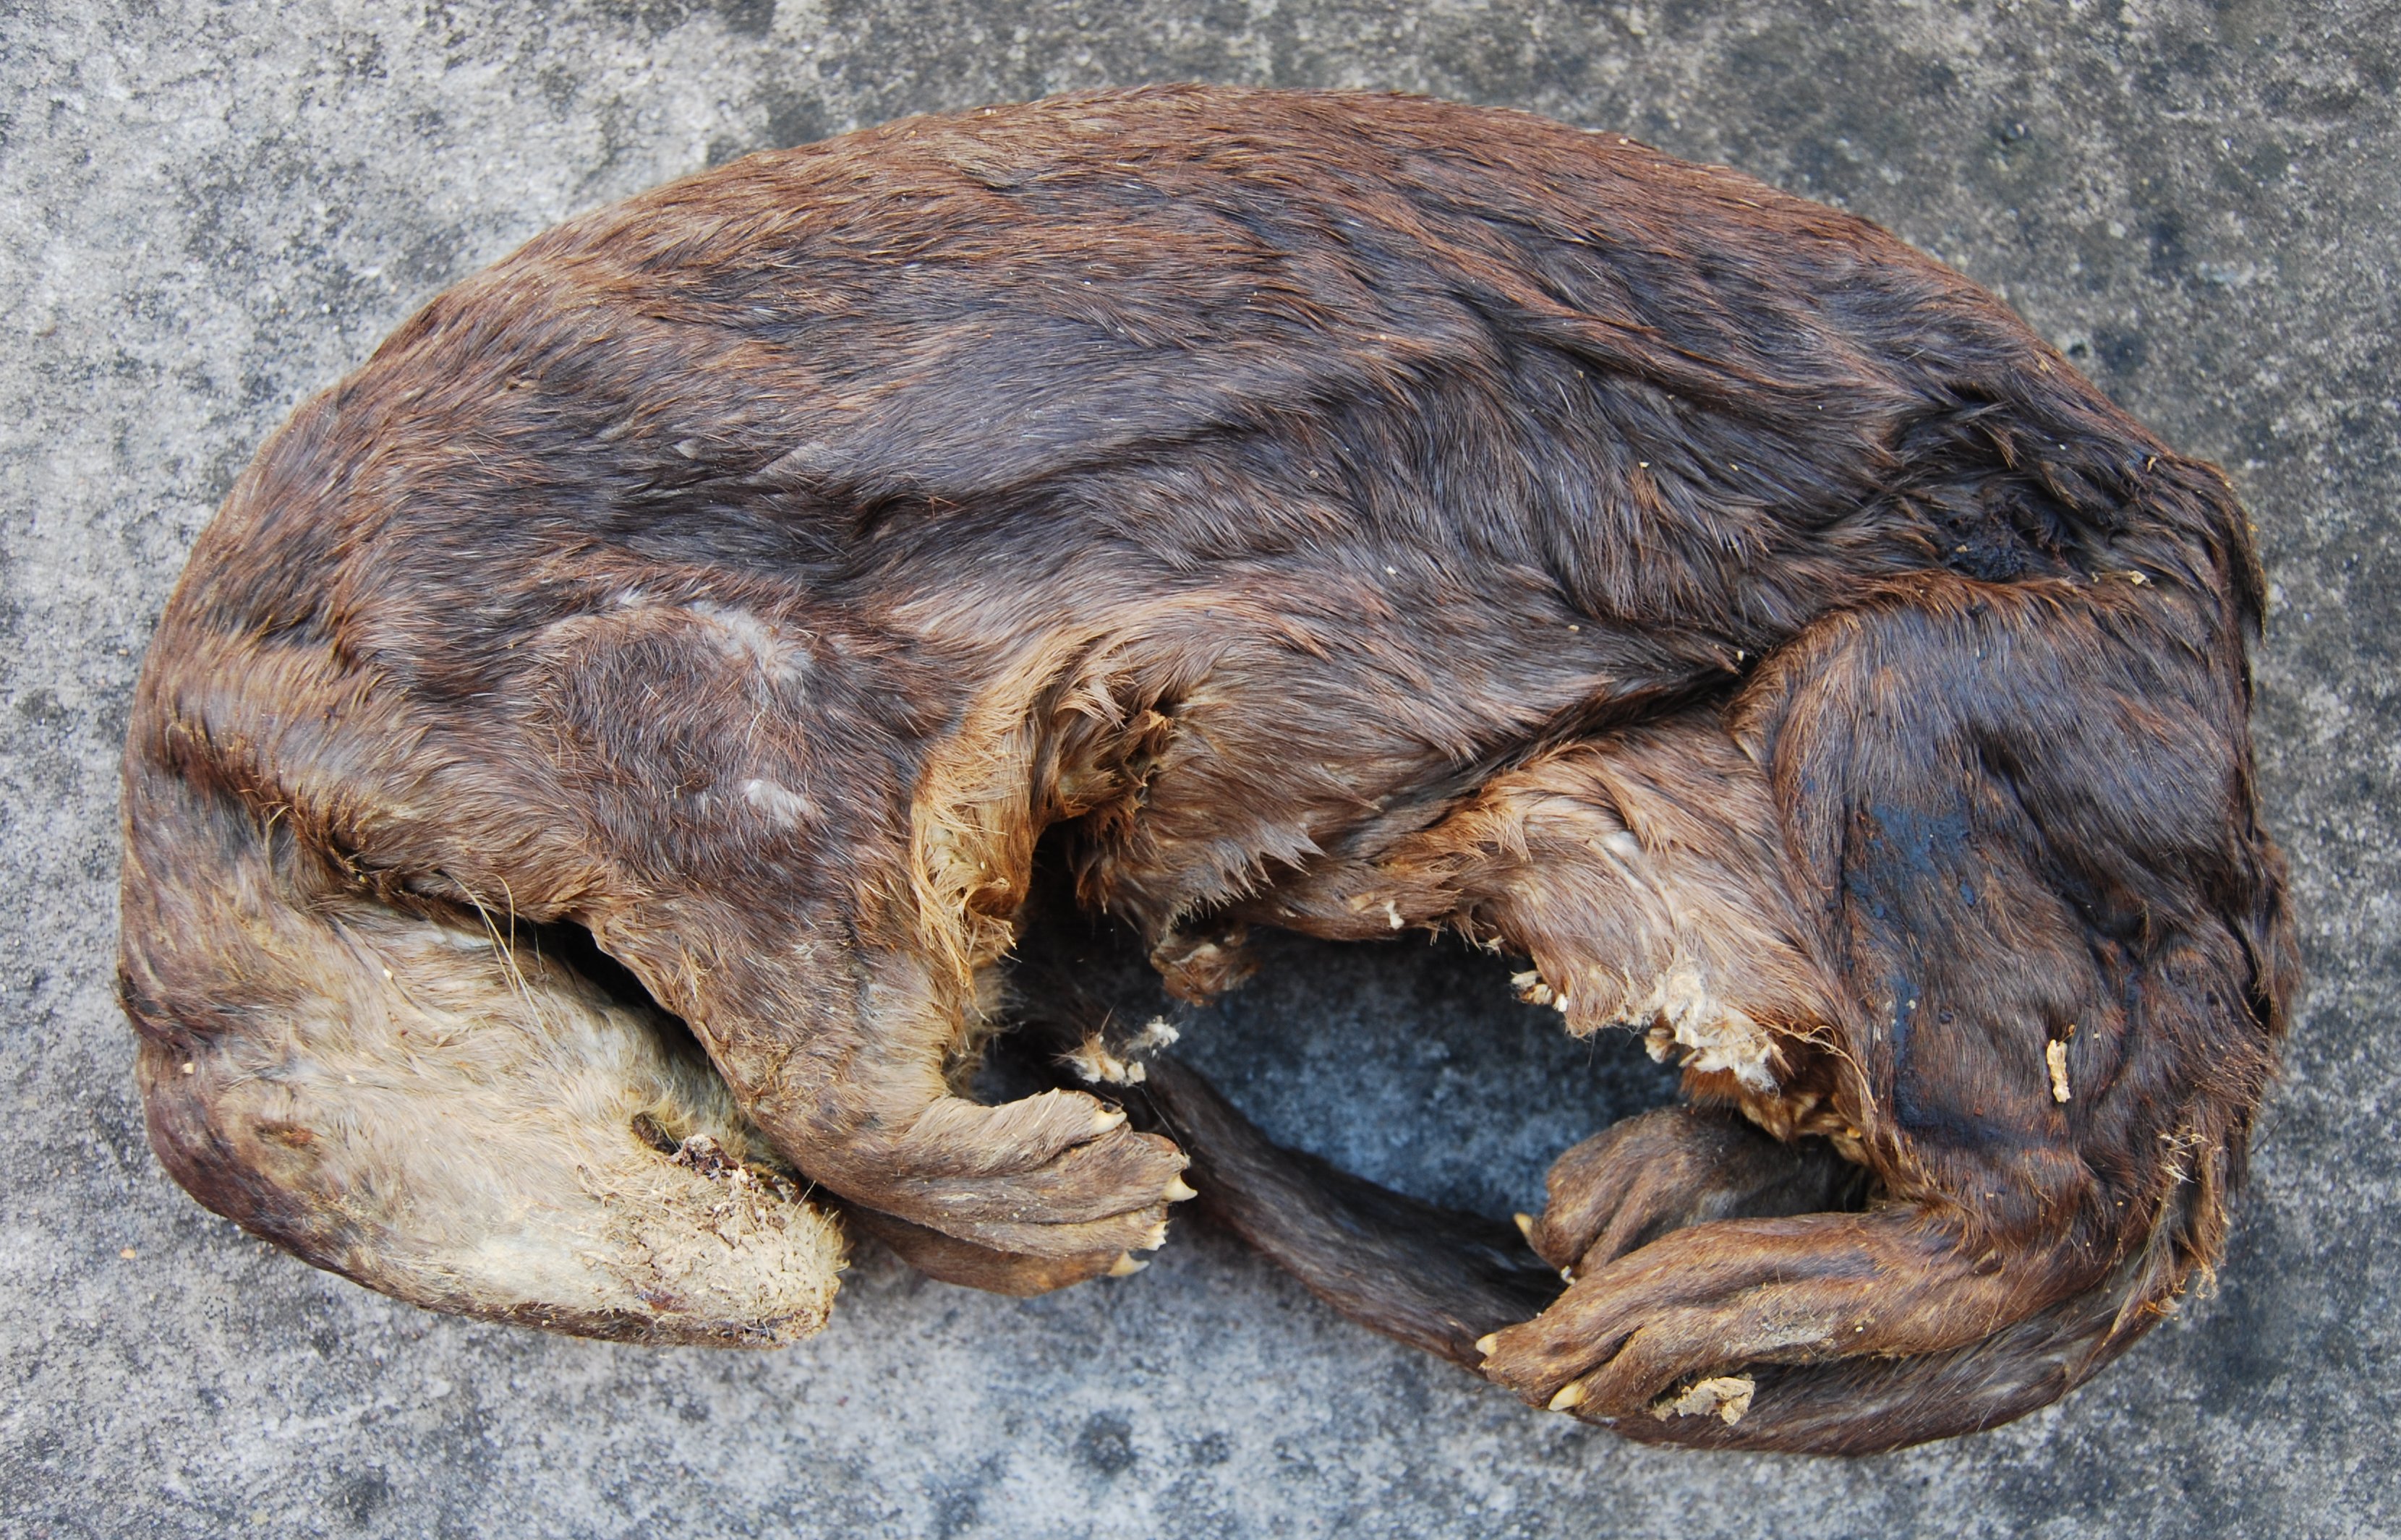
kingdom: Animalia
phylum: Chordata
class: Mammalia
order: Carnivora
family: Mustelidae
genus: Hydrictis
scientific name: Hydrictis maculicollis
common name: Spotted-necked otter
